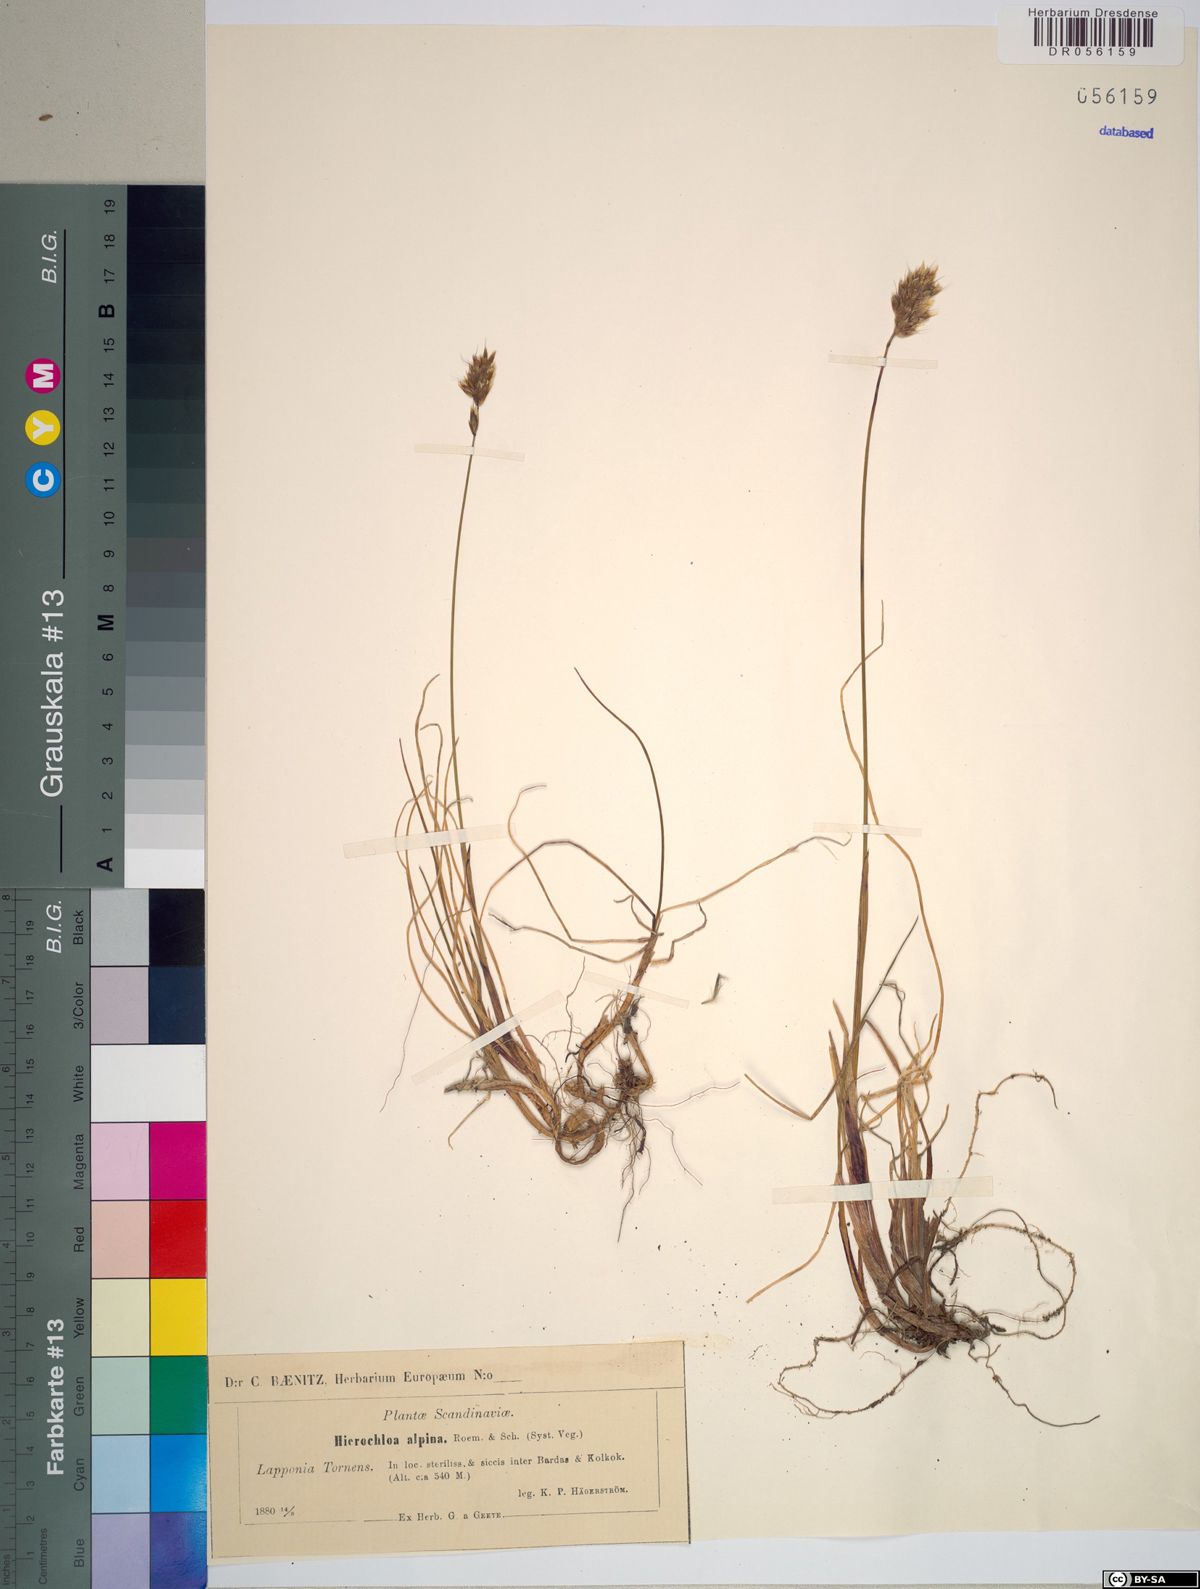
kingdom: Plantae
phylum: Tracheophyta
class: Liliopsida
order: Poales
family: Poaceae
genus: Anthoxanthum
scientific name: Anthoxanthum monticola
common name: Alpine sweetgrass
